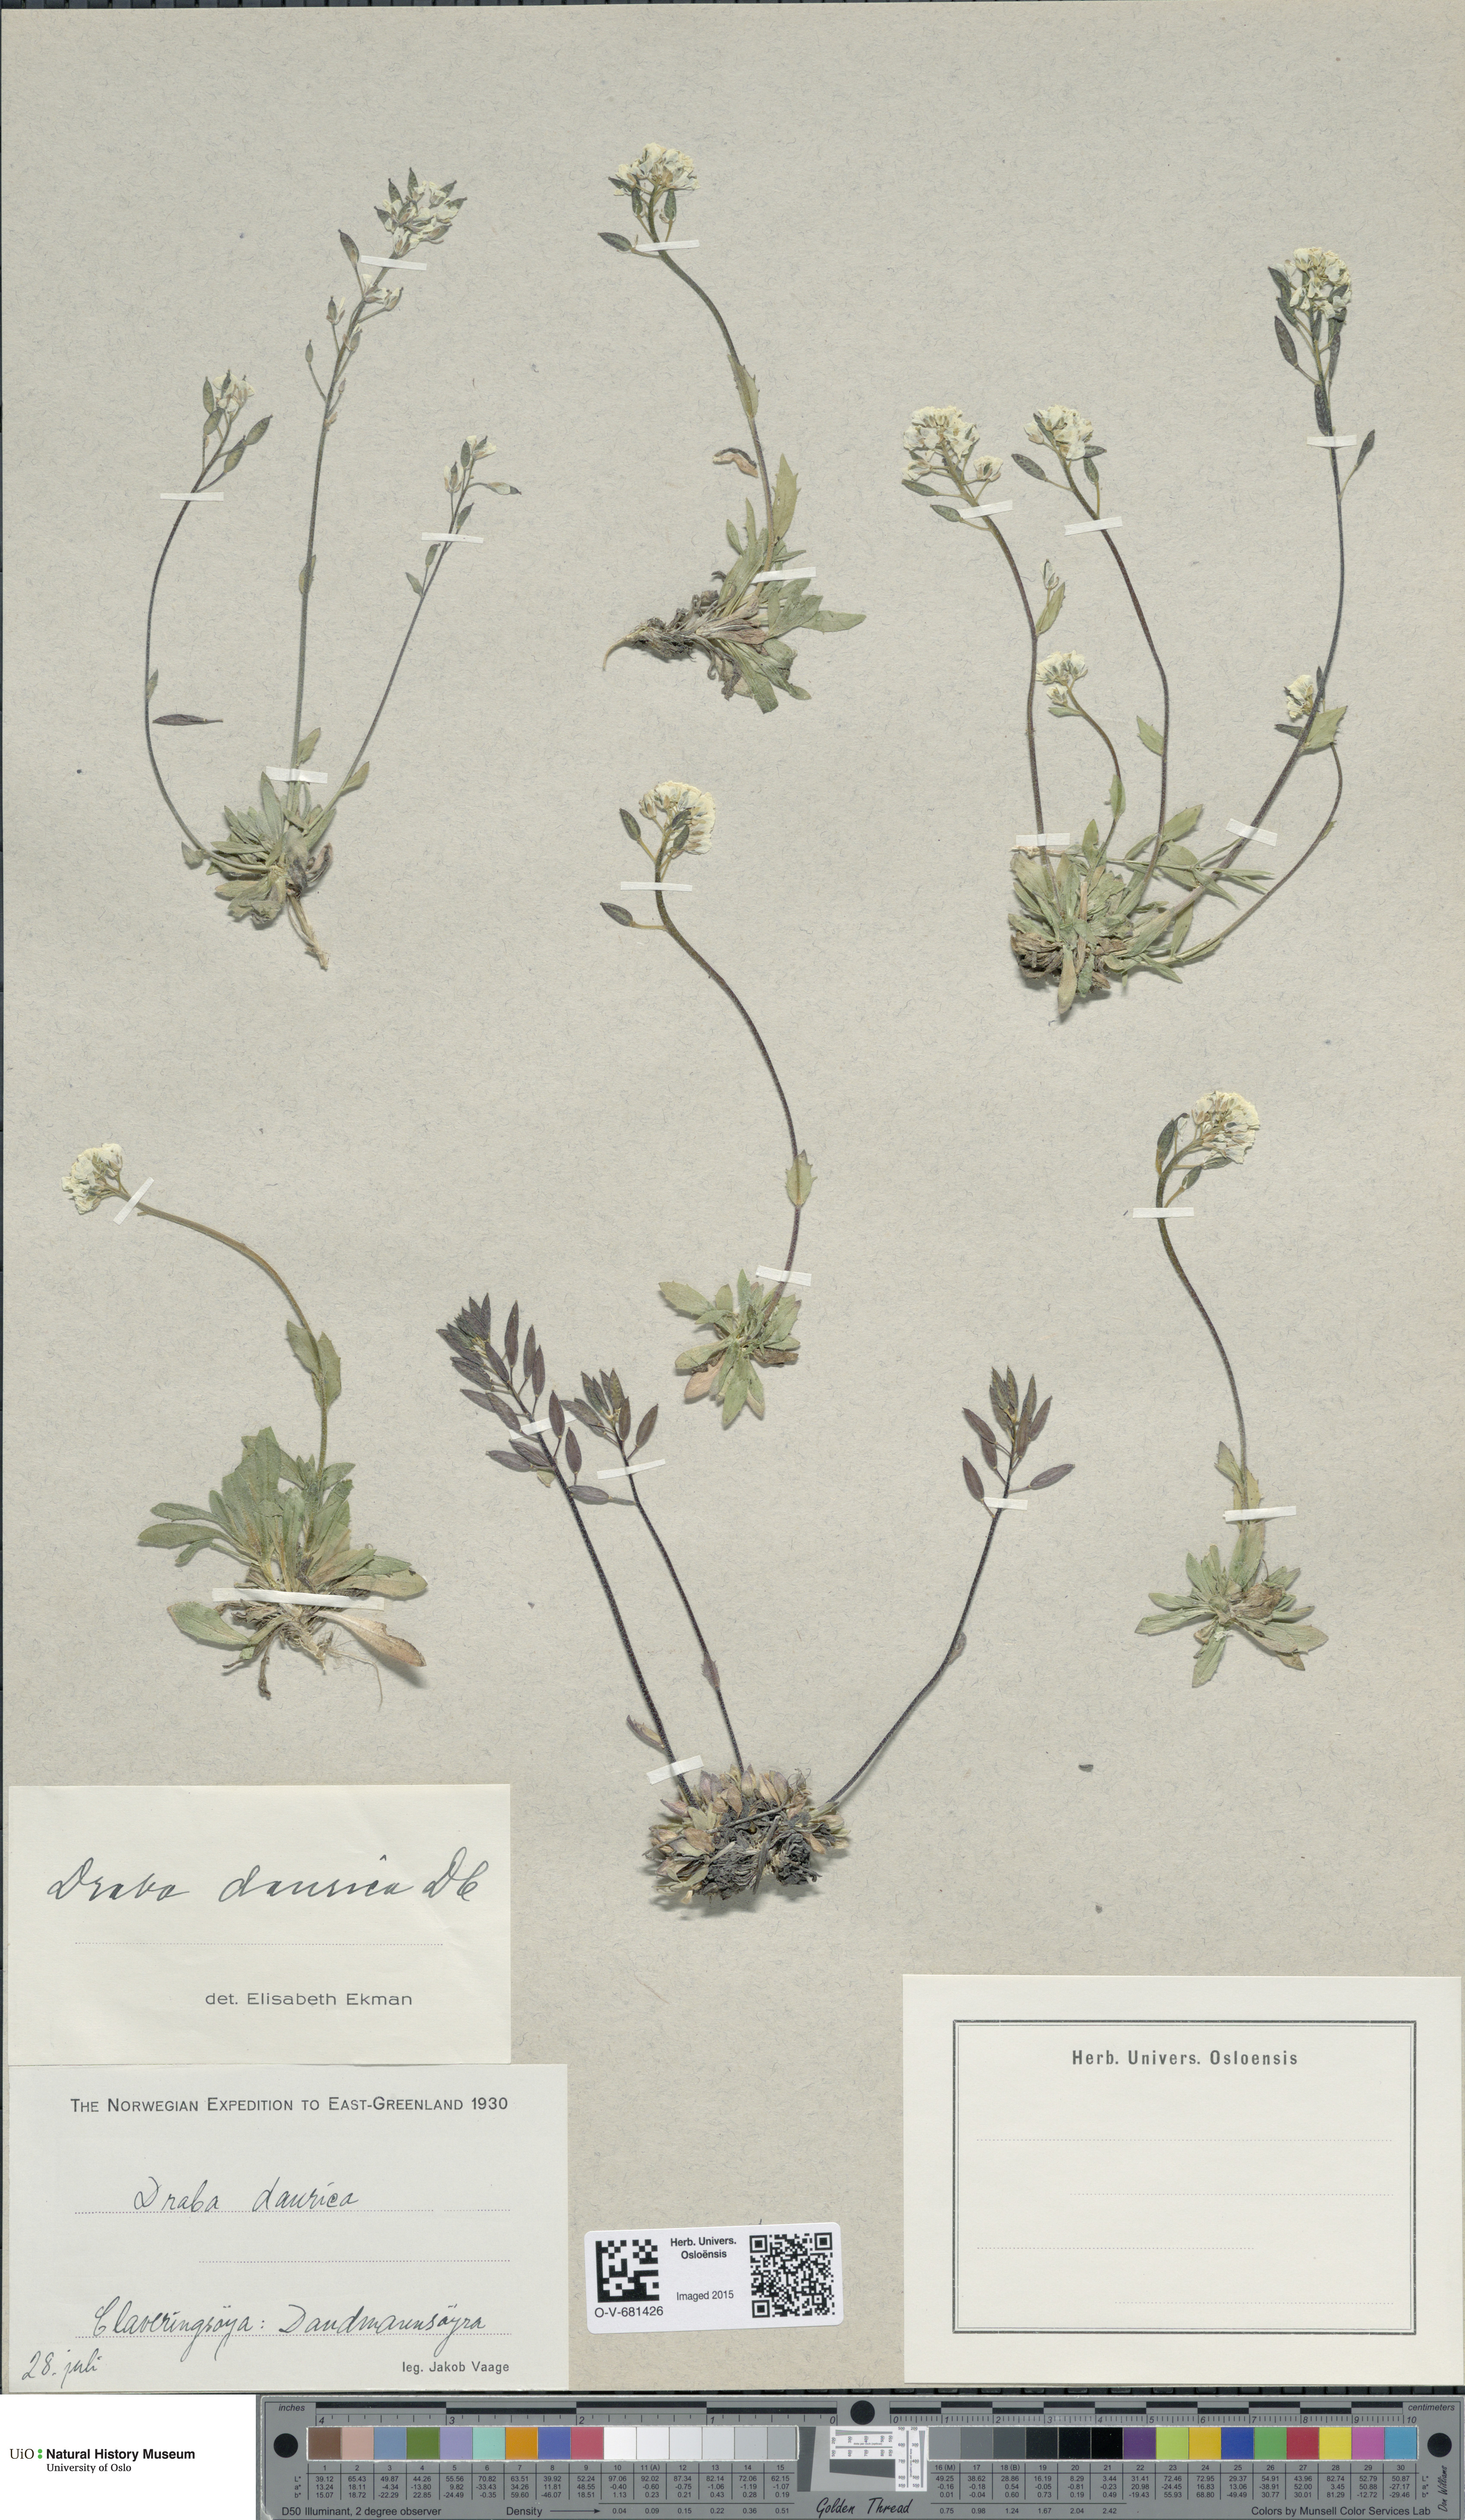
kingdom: Plantae
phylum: Tracheophyta
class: Magnoliopsida
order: Brassicales
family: Brassicaceae
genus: Draba
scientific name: Draba glabella
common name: Glaucous draba
